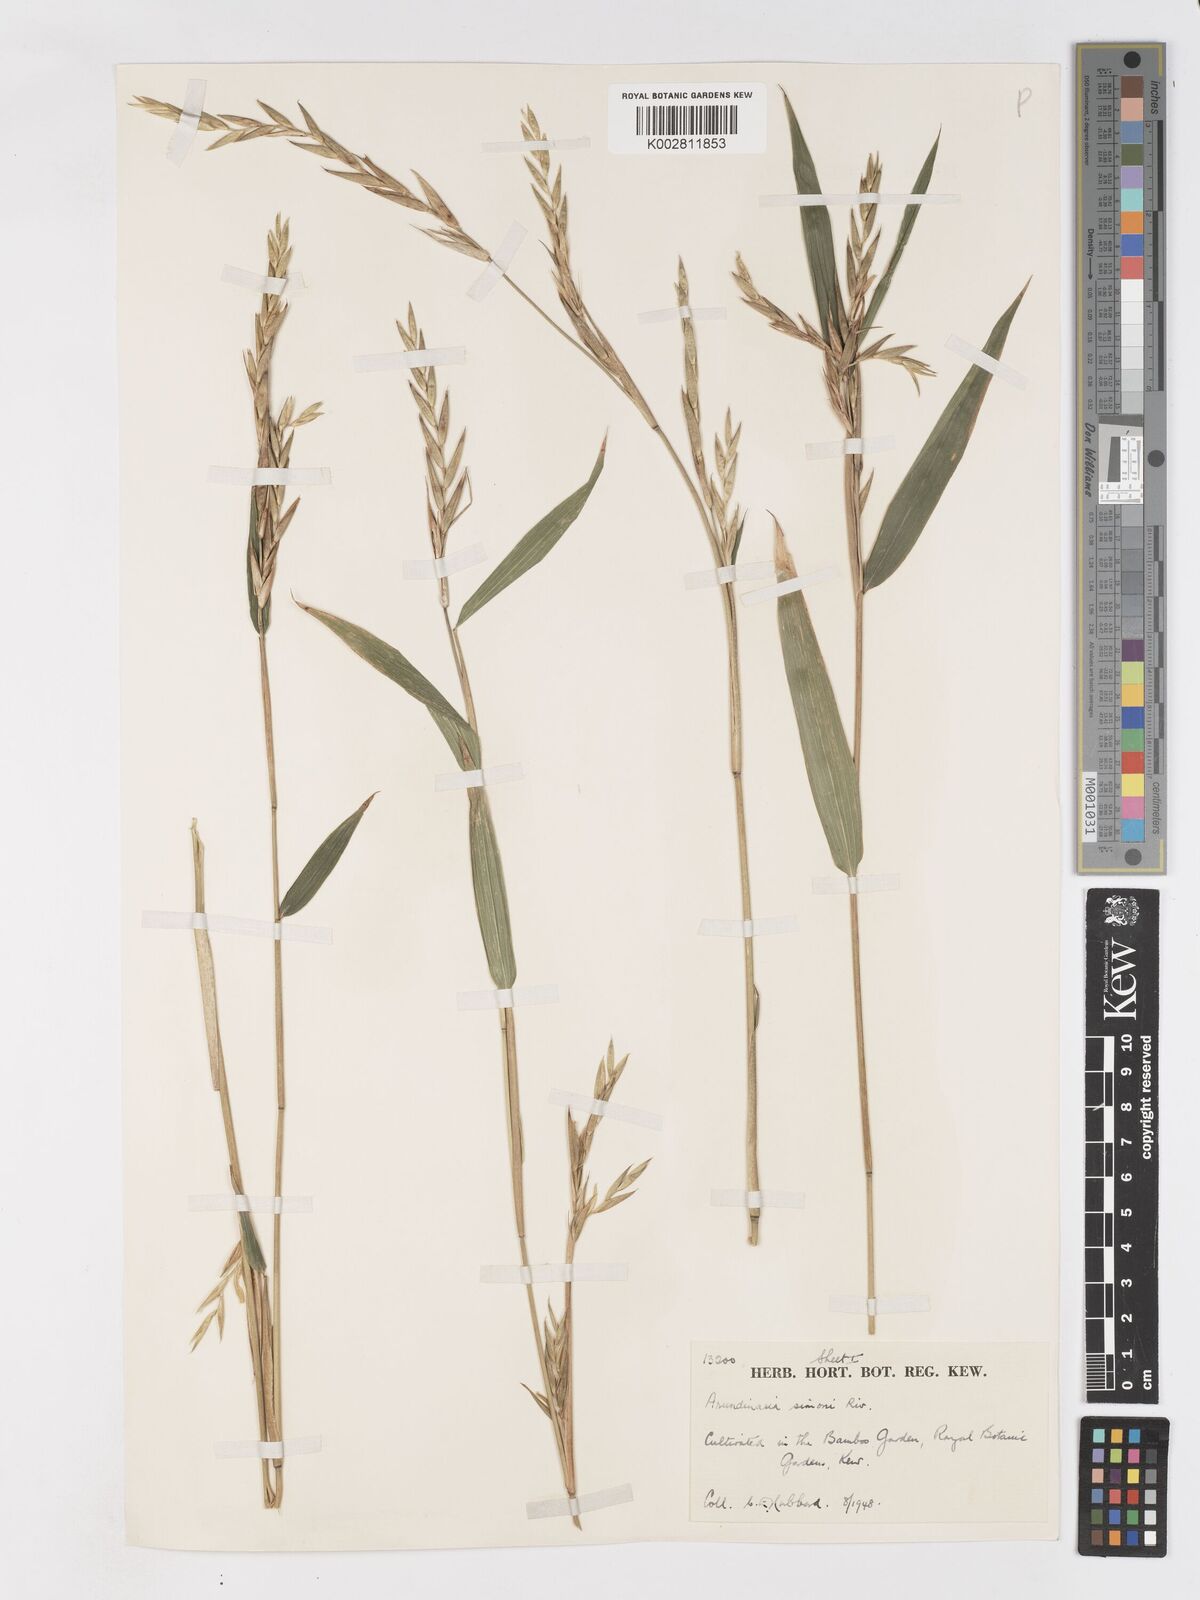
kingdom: Plantae
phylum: Tracheophyta
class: Liliopsida
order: Poales
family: Poaceae
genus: Pleioblastus
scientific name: Pleioblastus simonii
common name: Simon bamboo
